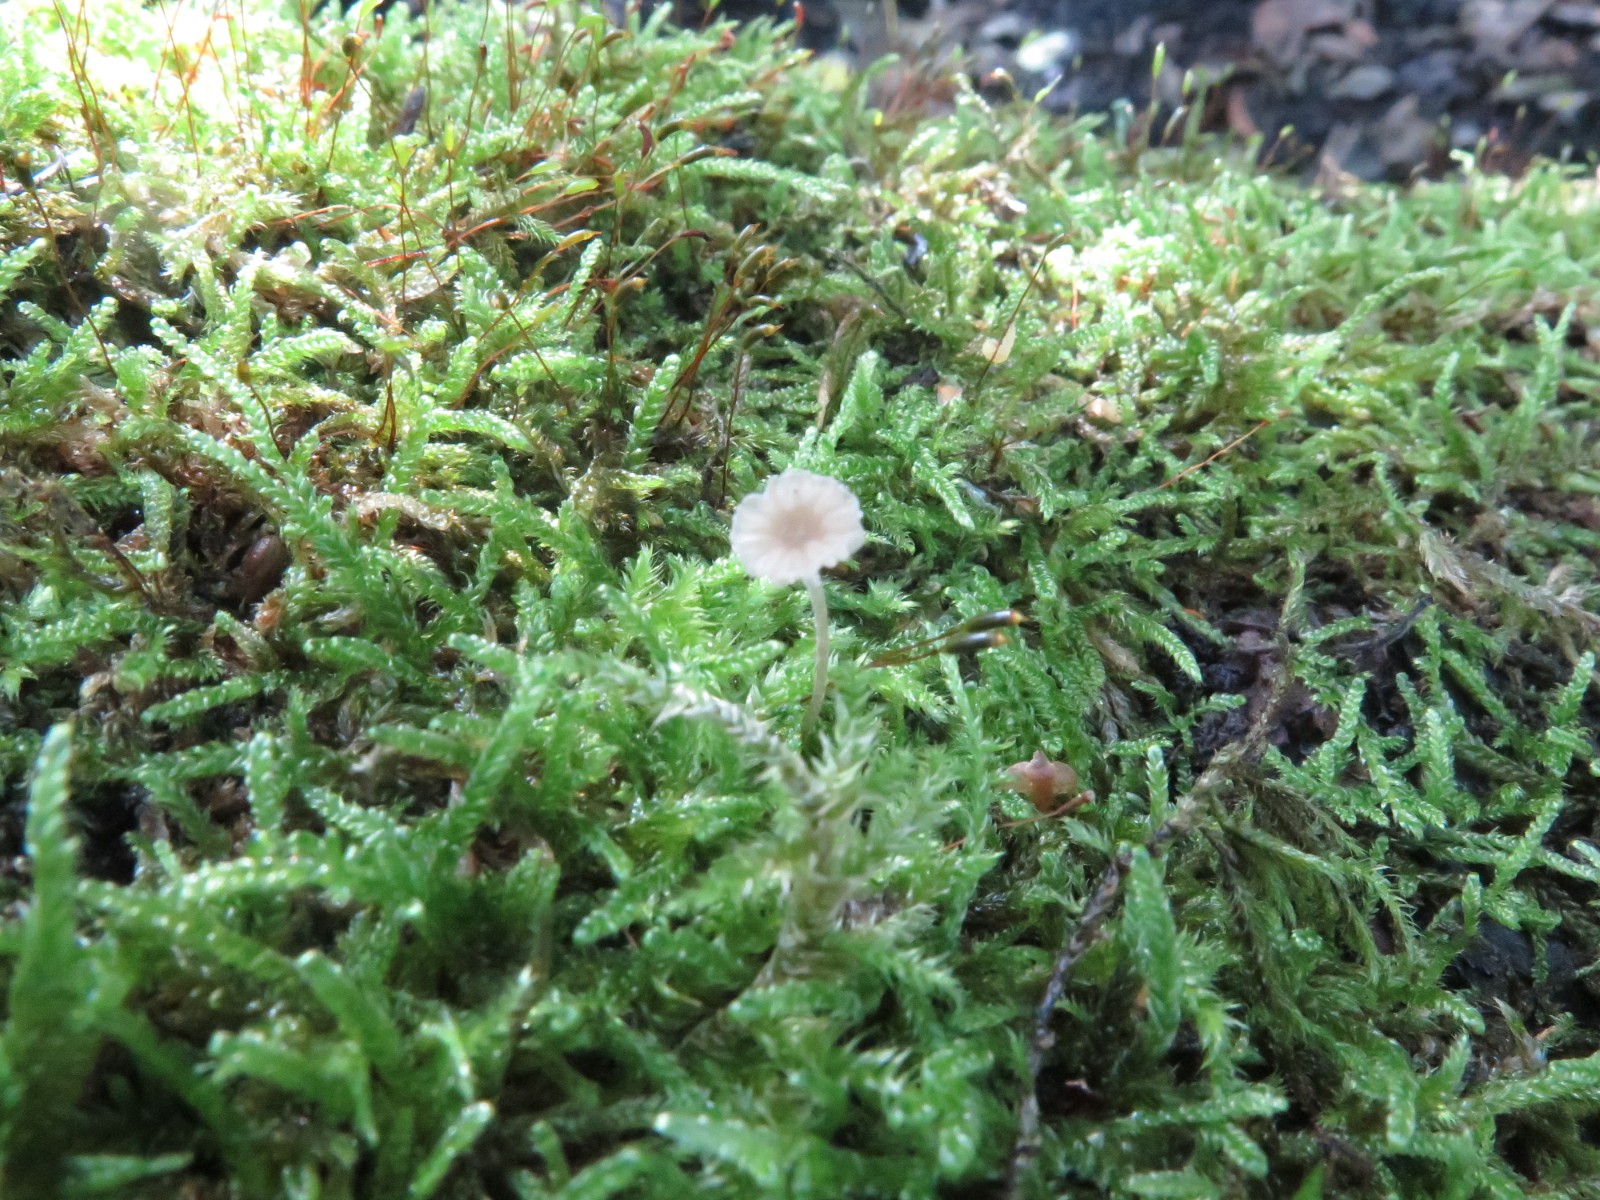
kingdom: Fungi
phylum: Basidiomycota
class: Agaricomycetes
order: Hymenochaetales
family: Rickenellaceae
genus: Rickenella
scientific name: Rickenella swartzii
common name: finstokket mosnavlehat
